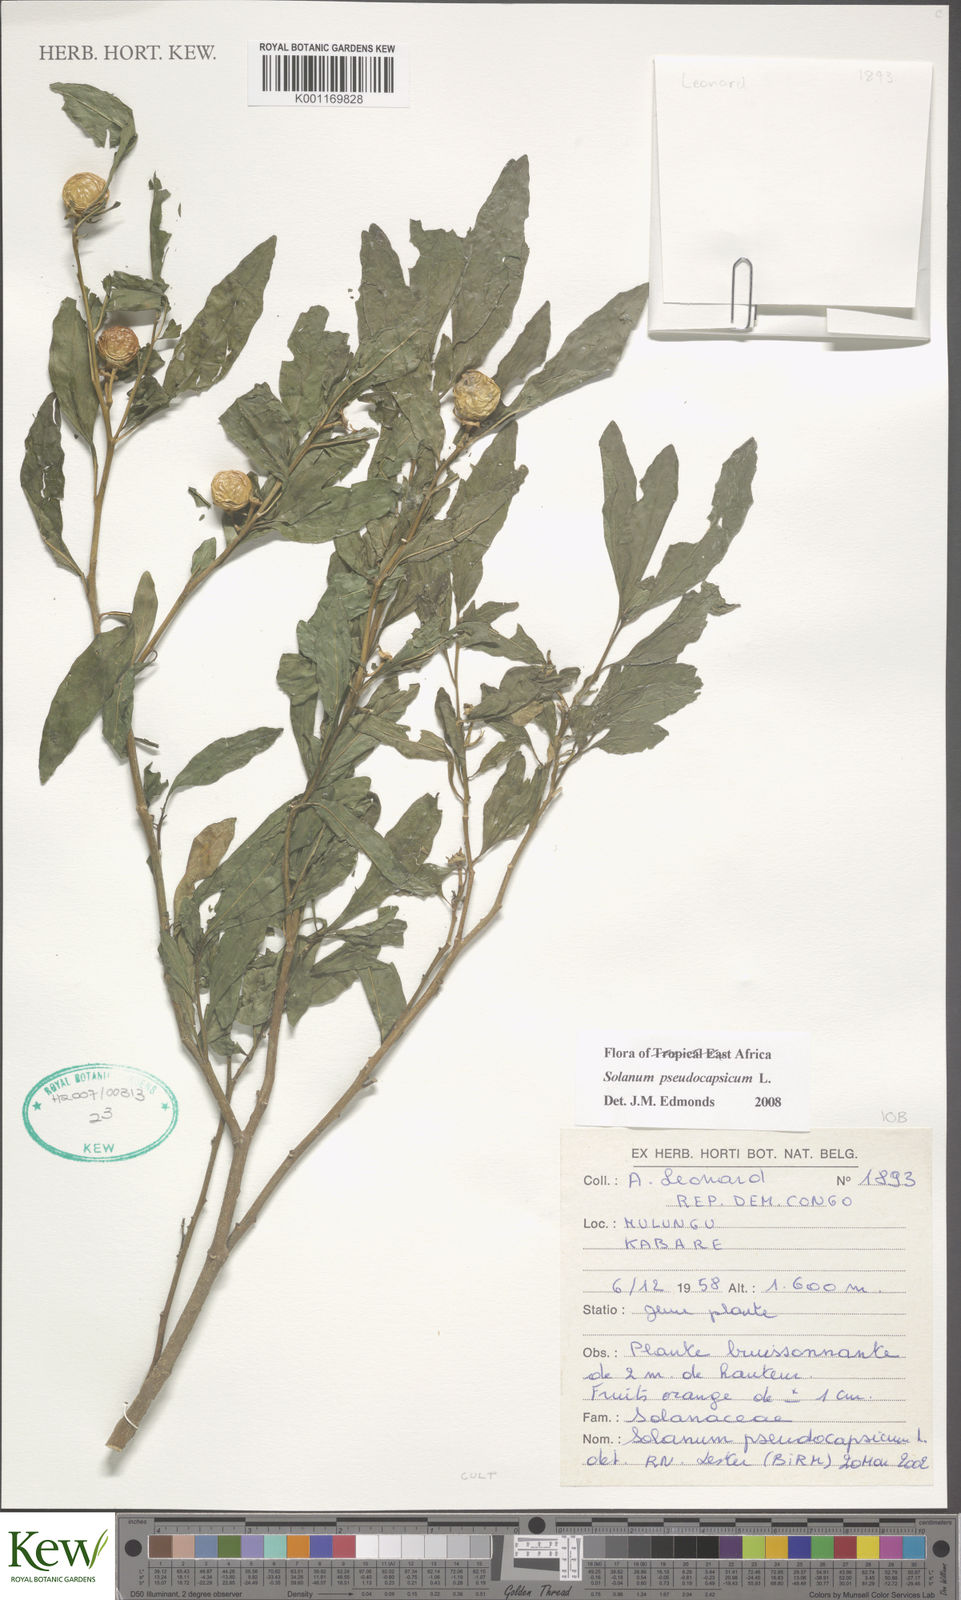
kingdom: Plantae
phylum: Tracheophyta
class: Magnoliopsida
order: Solanales
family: Solanaceae
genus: Solanum
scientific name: Solanum pseudocapsicum
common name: Jerusalem cherry
